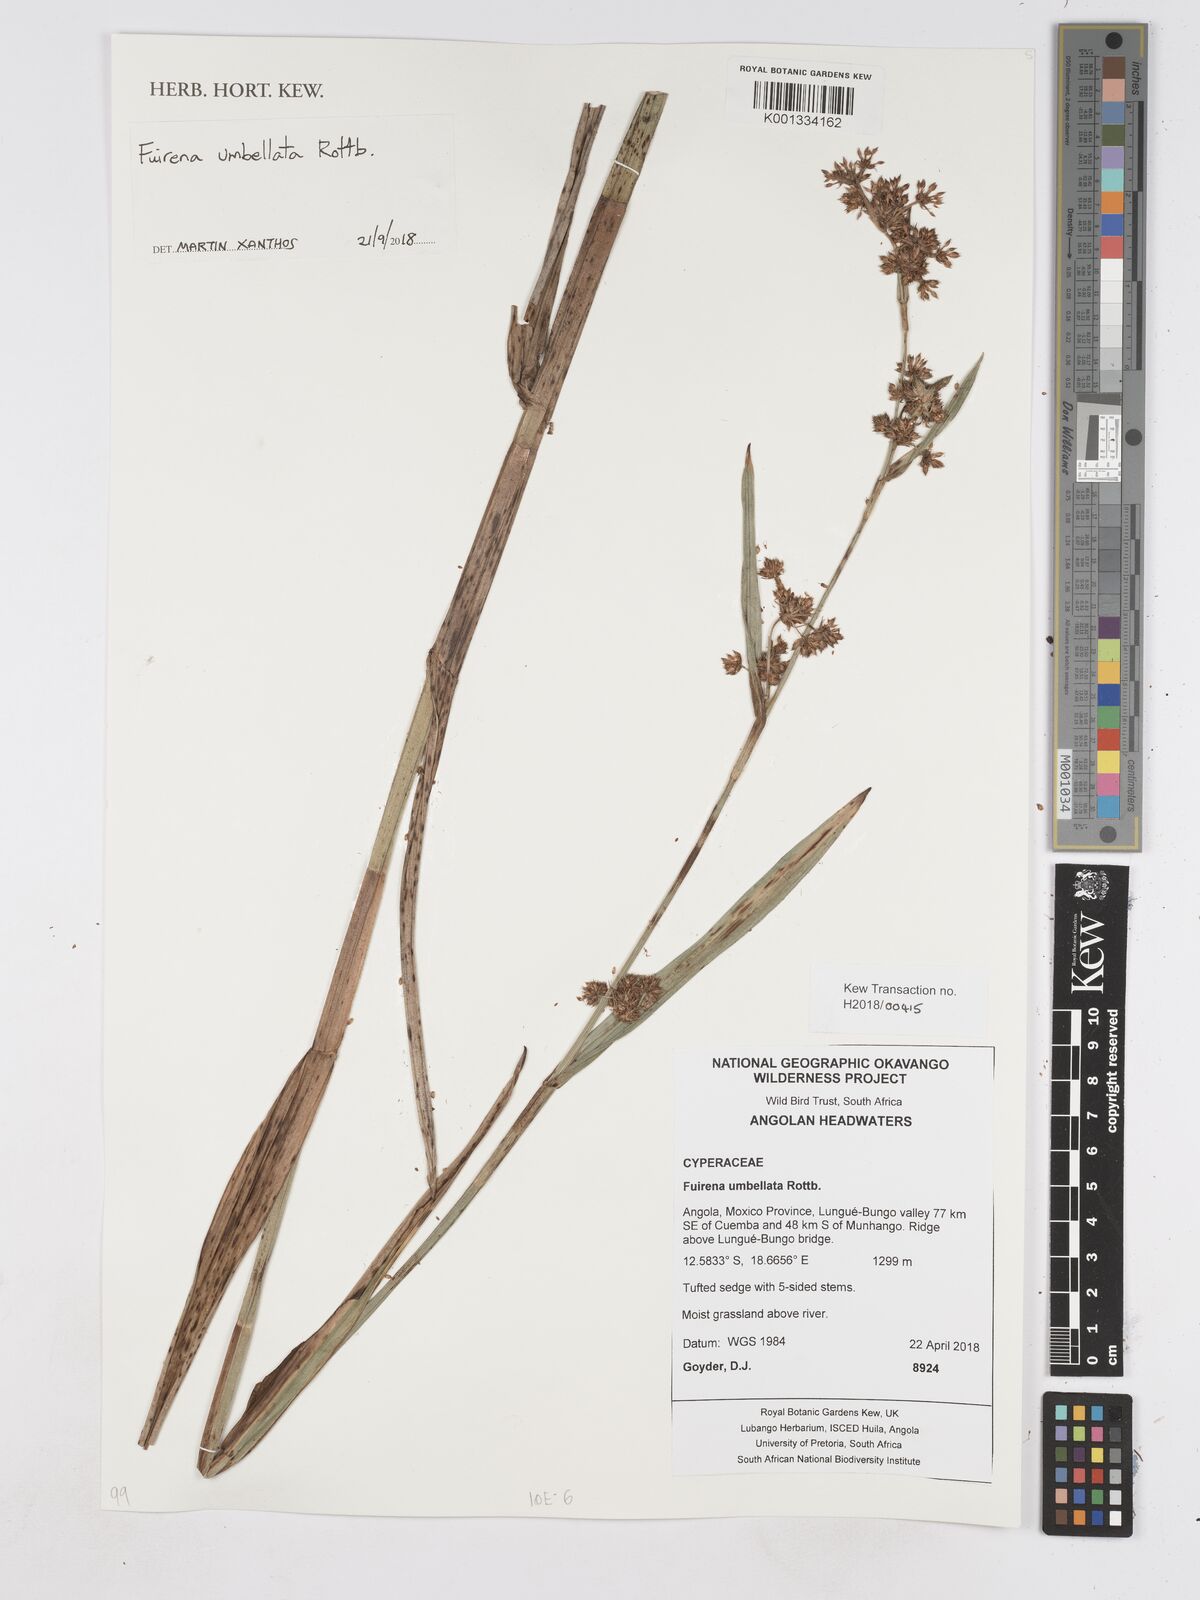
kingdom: Plantae
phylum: Tracheophyta
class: Liliopsida
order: Poales
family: Cyperaceae
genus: Fuirena
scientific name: Fuirena umbellata
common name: Yefen
